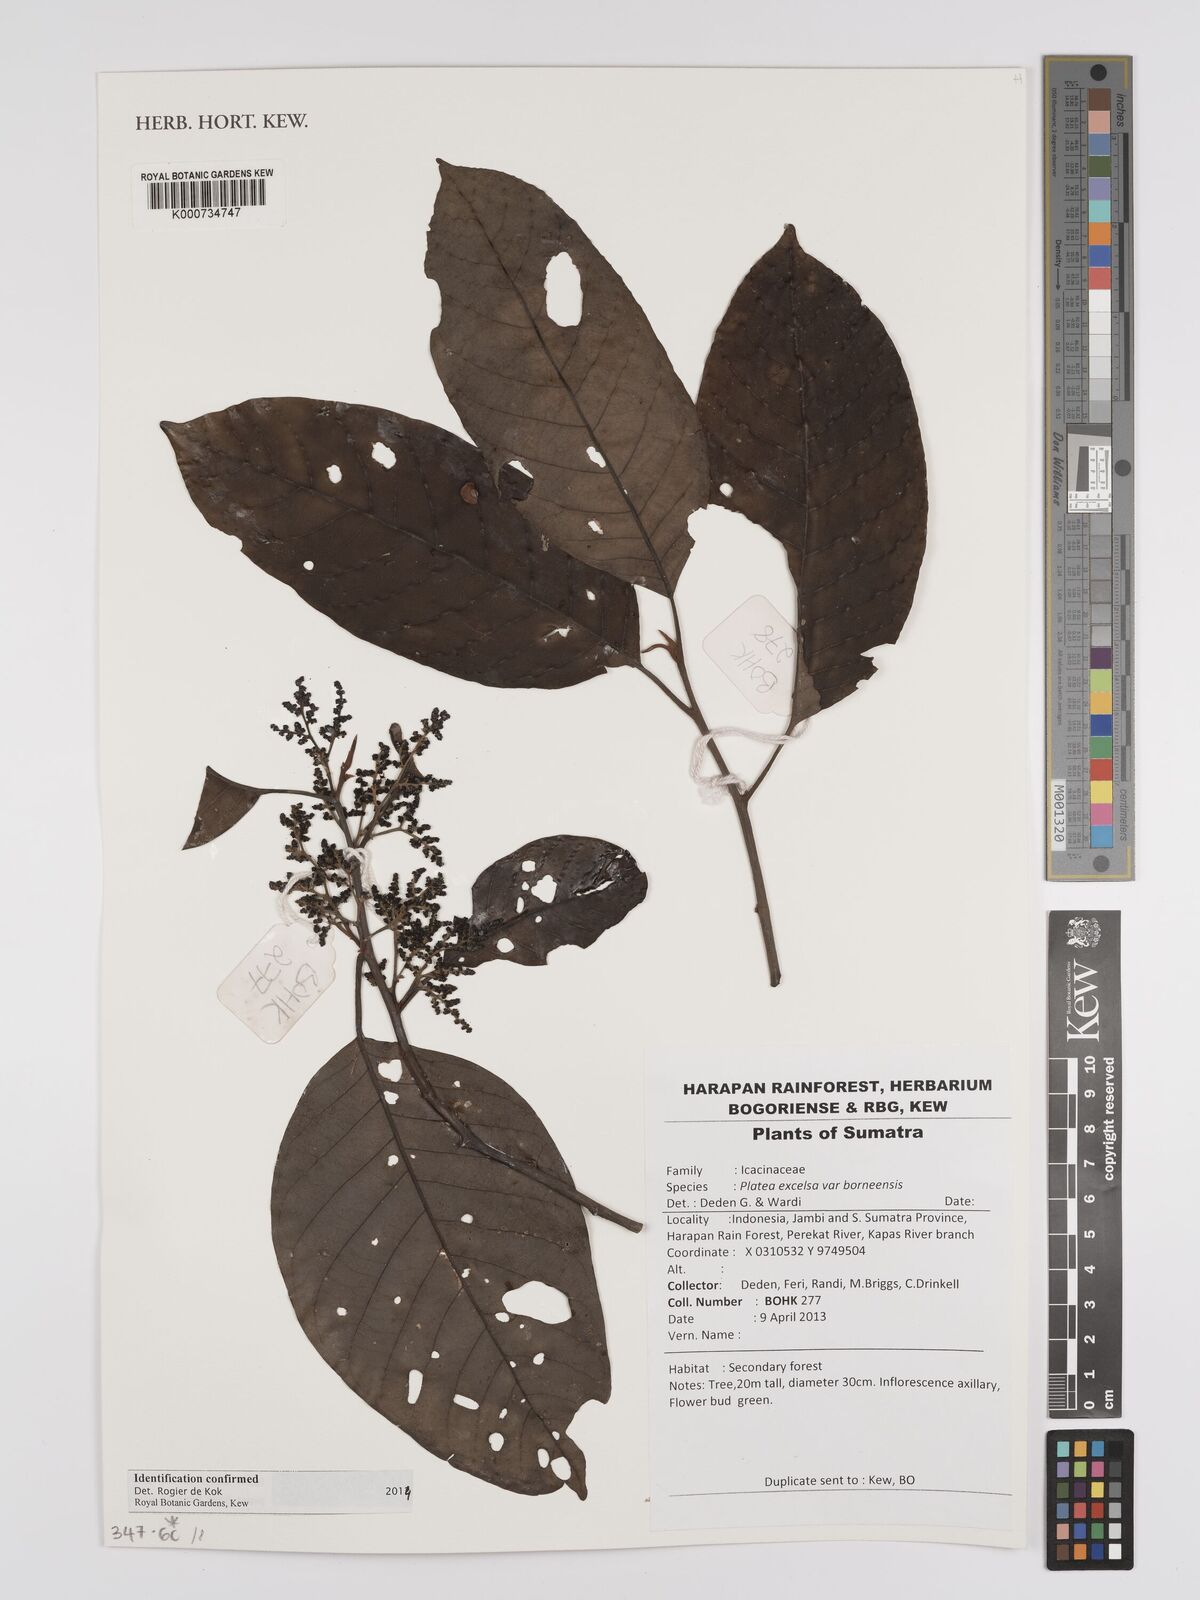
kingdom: Plantae
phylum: Tracheophyta
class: Magnoliopsida
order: Metteniusales
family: Metteniusaceae
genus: Platea
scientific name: Platea excelsa
